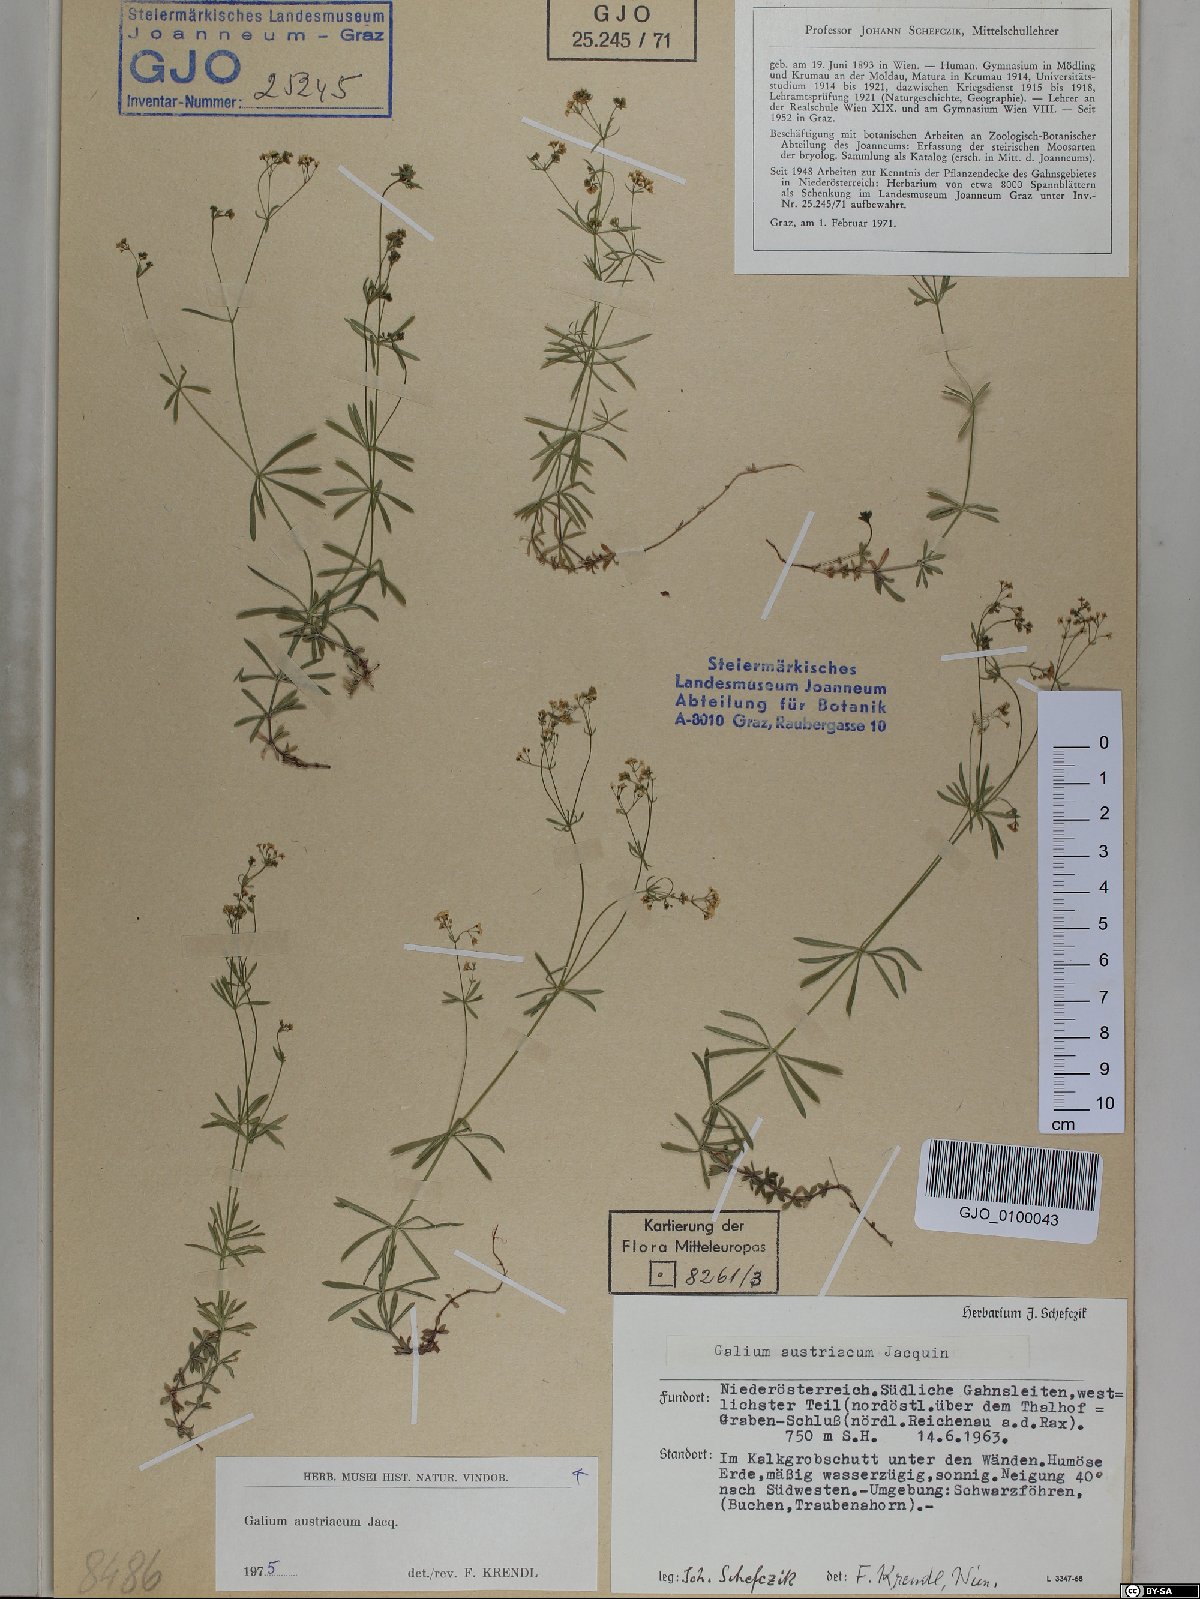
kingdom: Plantae
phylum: Tracheophyta
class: Magnoliopsida
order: Gentianales
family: Rubiaceae
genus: Galium
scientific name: Galium austriacum
